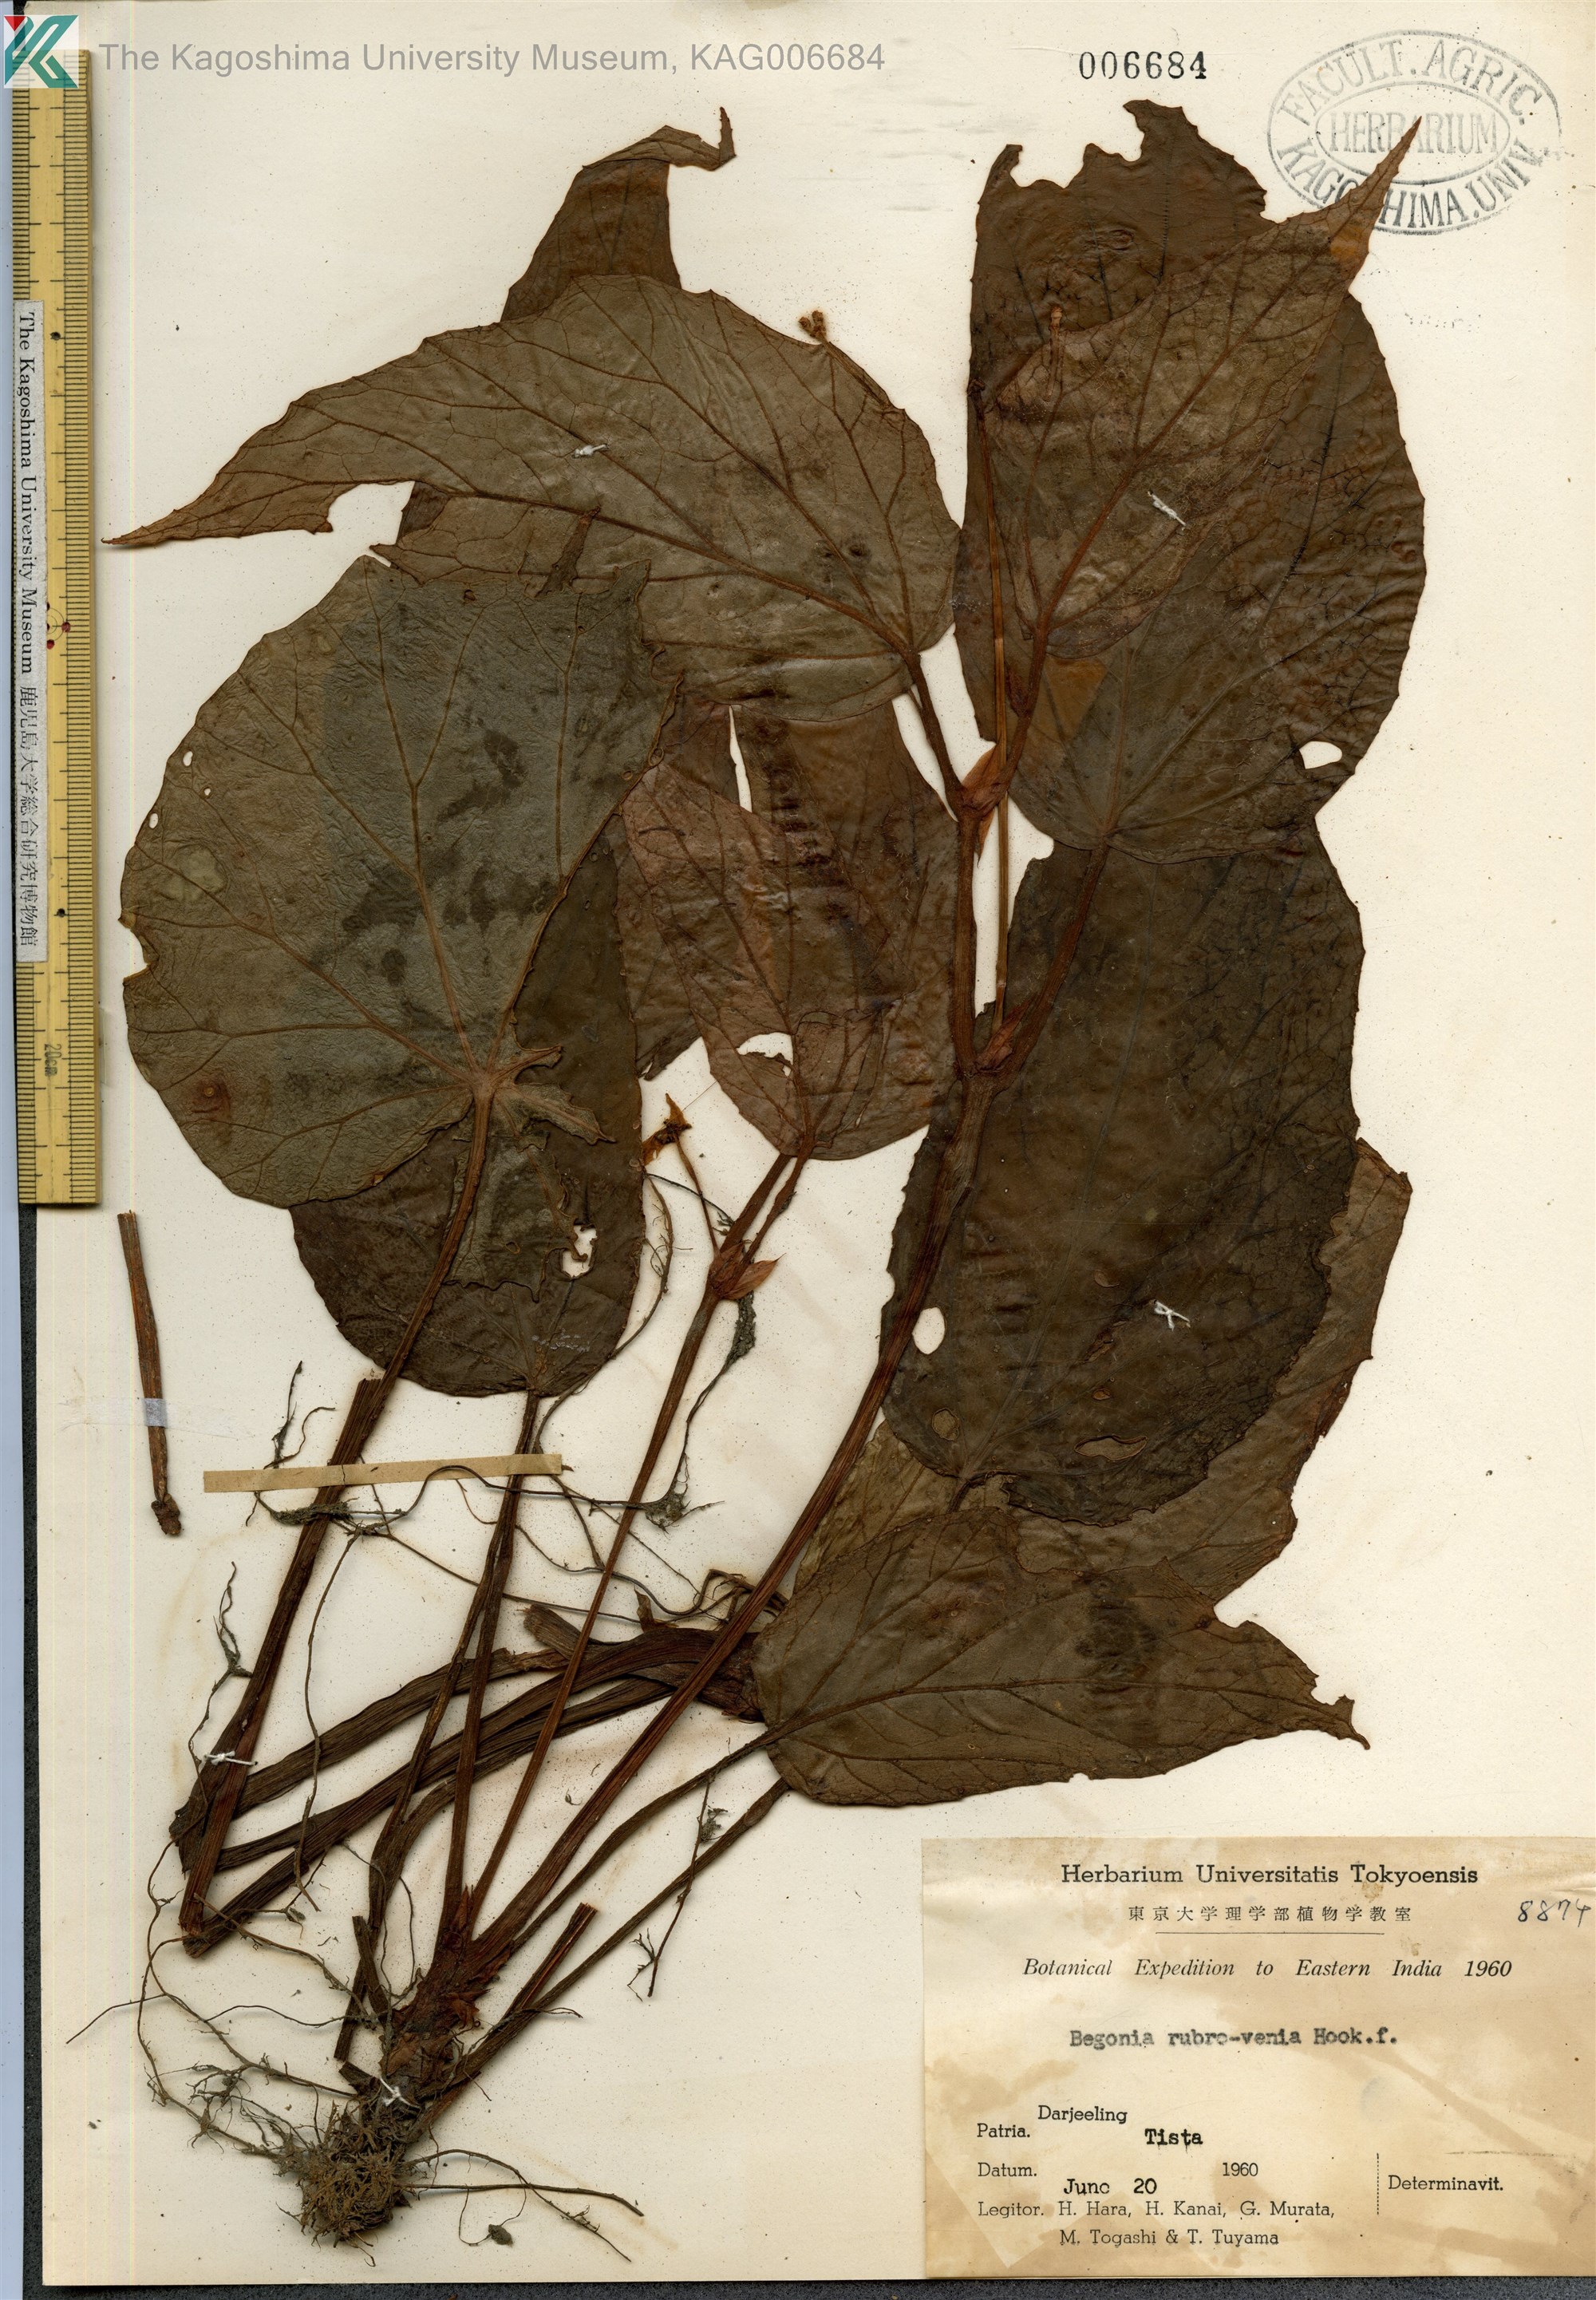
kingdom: Plantae
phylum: Tracheophyta
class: Magnoliopsida
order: Cucurbitales
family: Begoniaceae
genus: Begonia
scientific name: Begonia hatacoa
